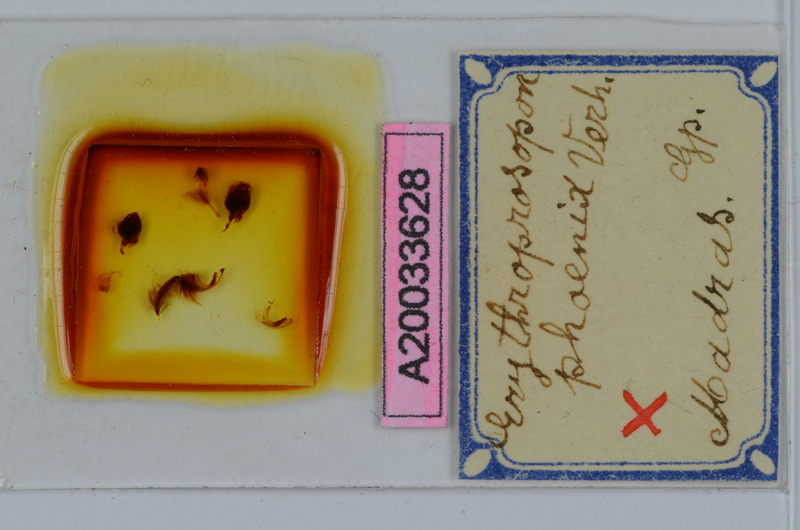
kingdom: Animalia
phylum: Arthropoda
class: Diplopoda
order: Spirobolida
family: Pachybolidae
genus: Erythroprosopon
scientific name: Erythroprosopon phoenix
